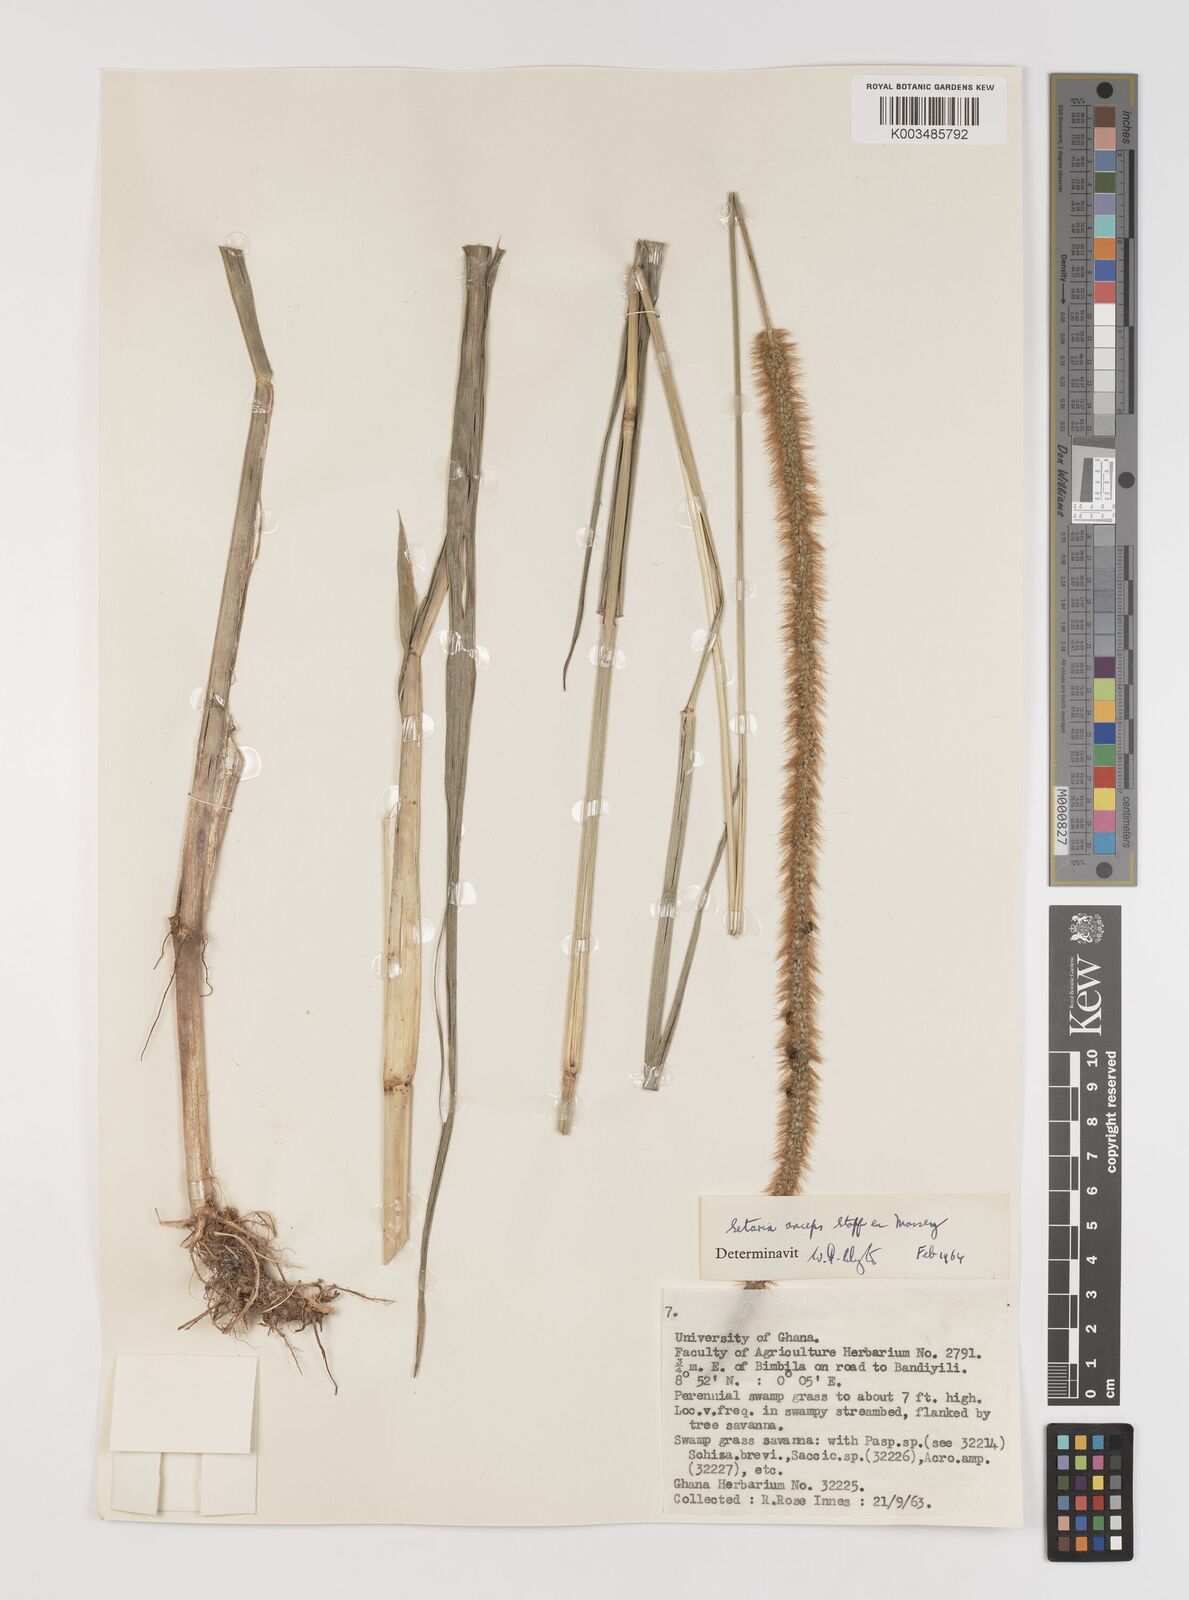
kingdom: Plantae
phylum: Tracheophyta
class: Liliopsida
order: Poales
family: Poaceae
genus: Setaria
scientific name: Setaria sphacelata
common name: African bristlegrass
